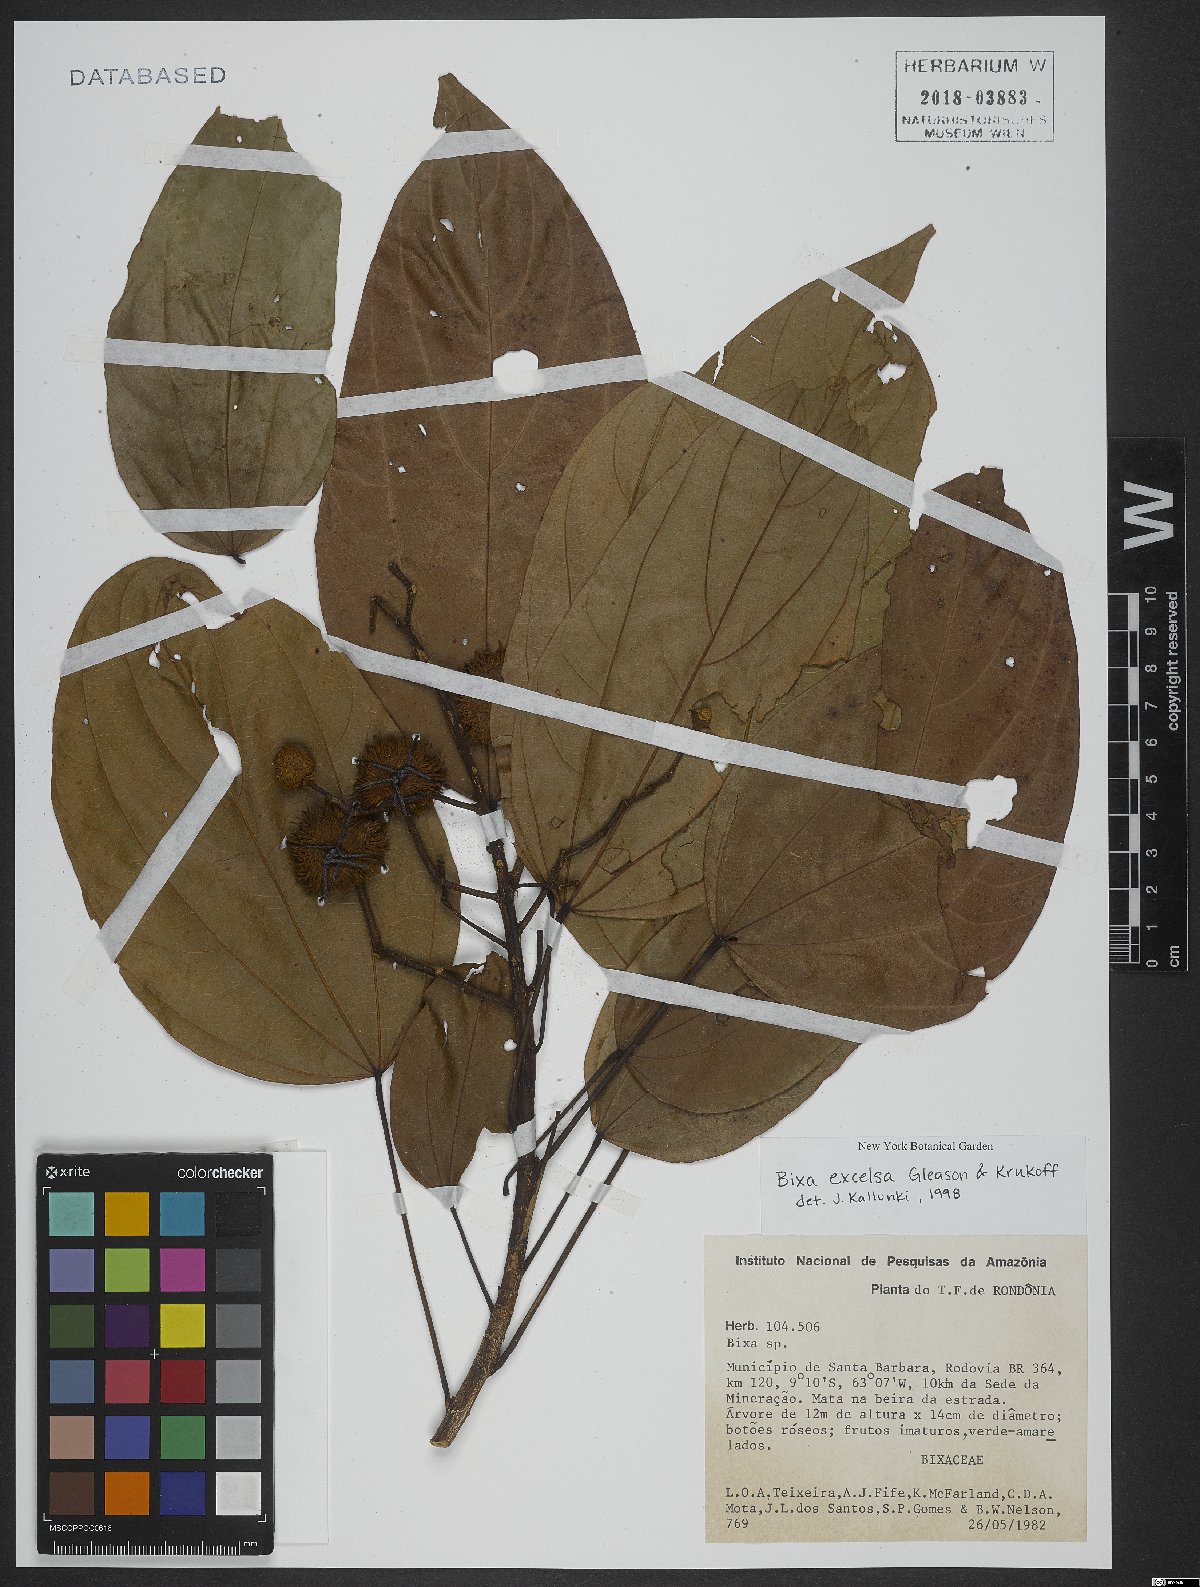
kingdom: Plantae
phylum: Tracheophyta
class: Magnoliopsida
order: Malvales
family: Bixaceae
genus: Bixa
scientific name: Bixa excelsa
